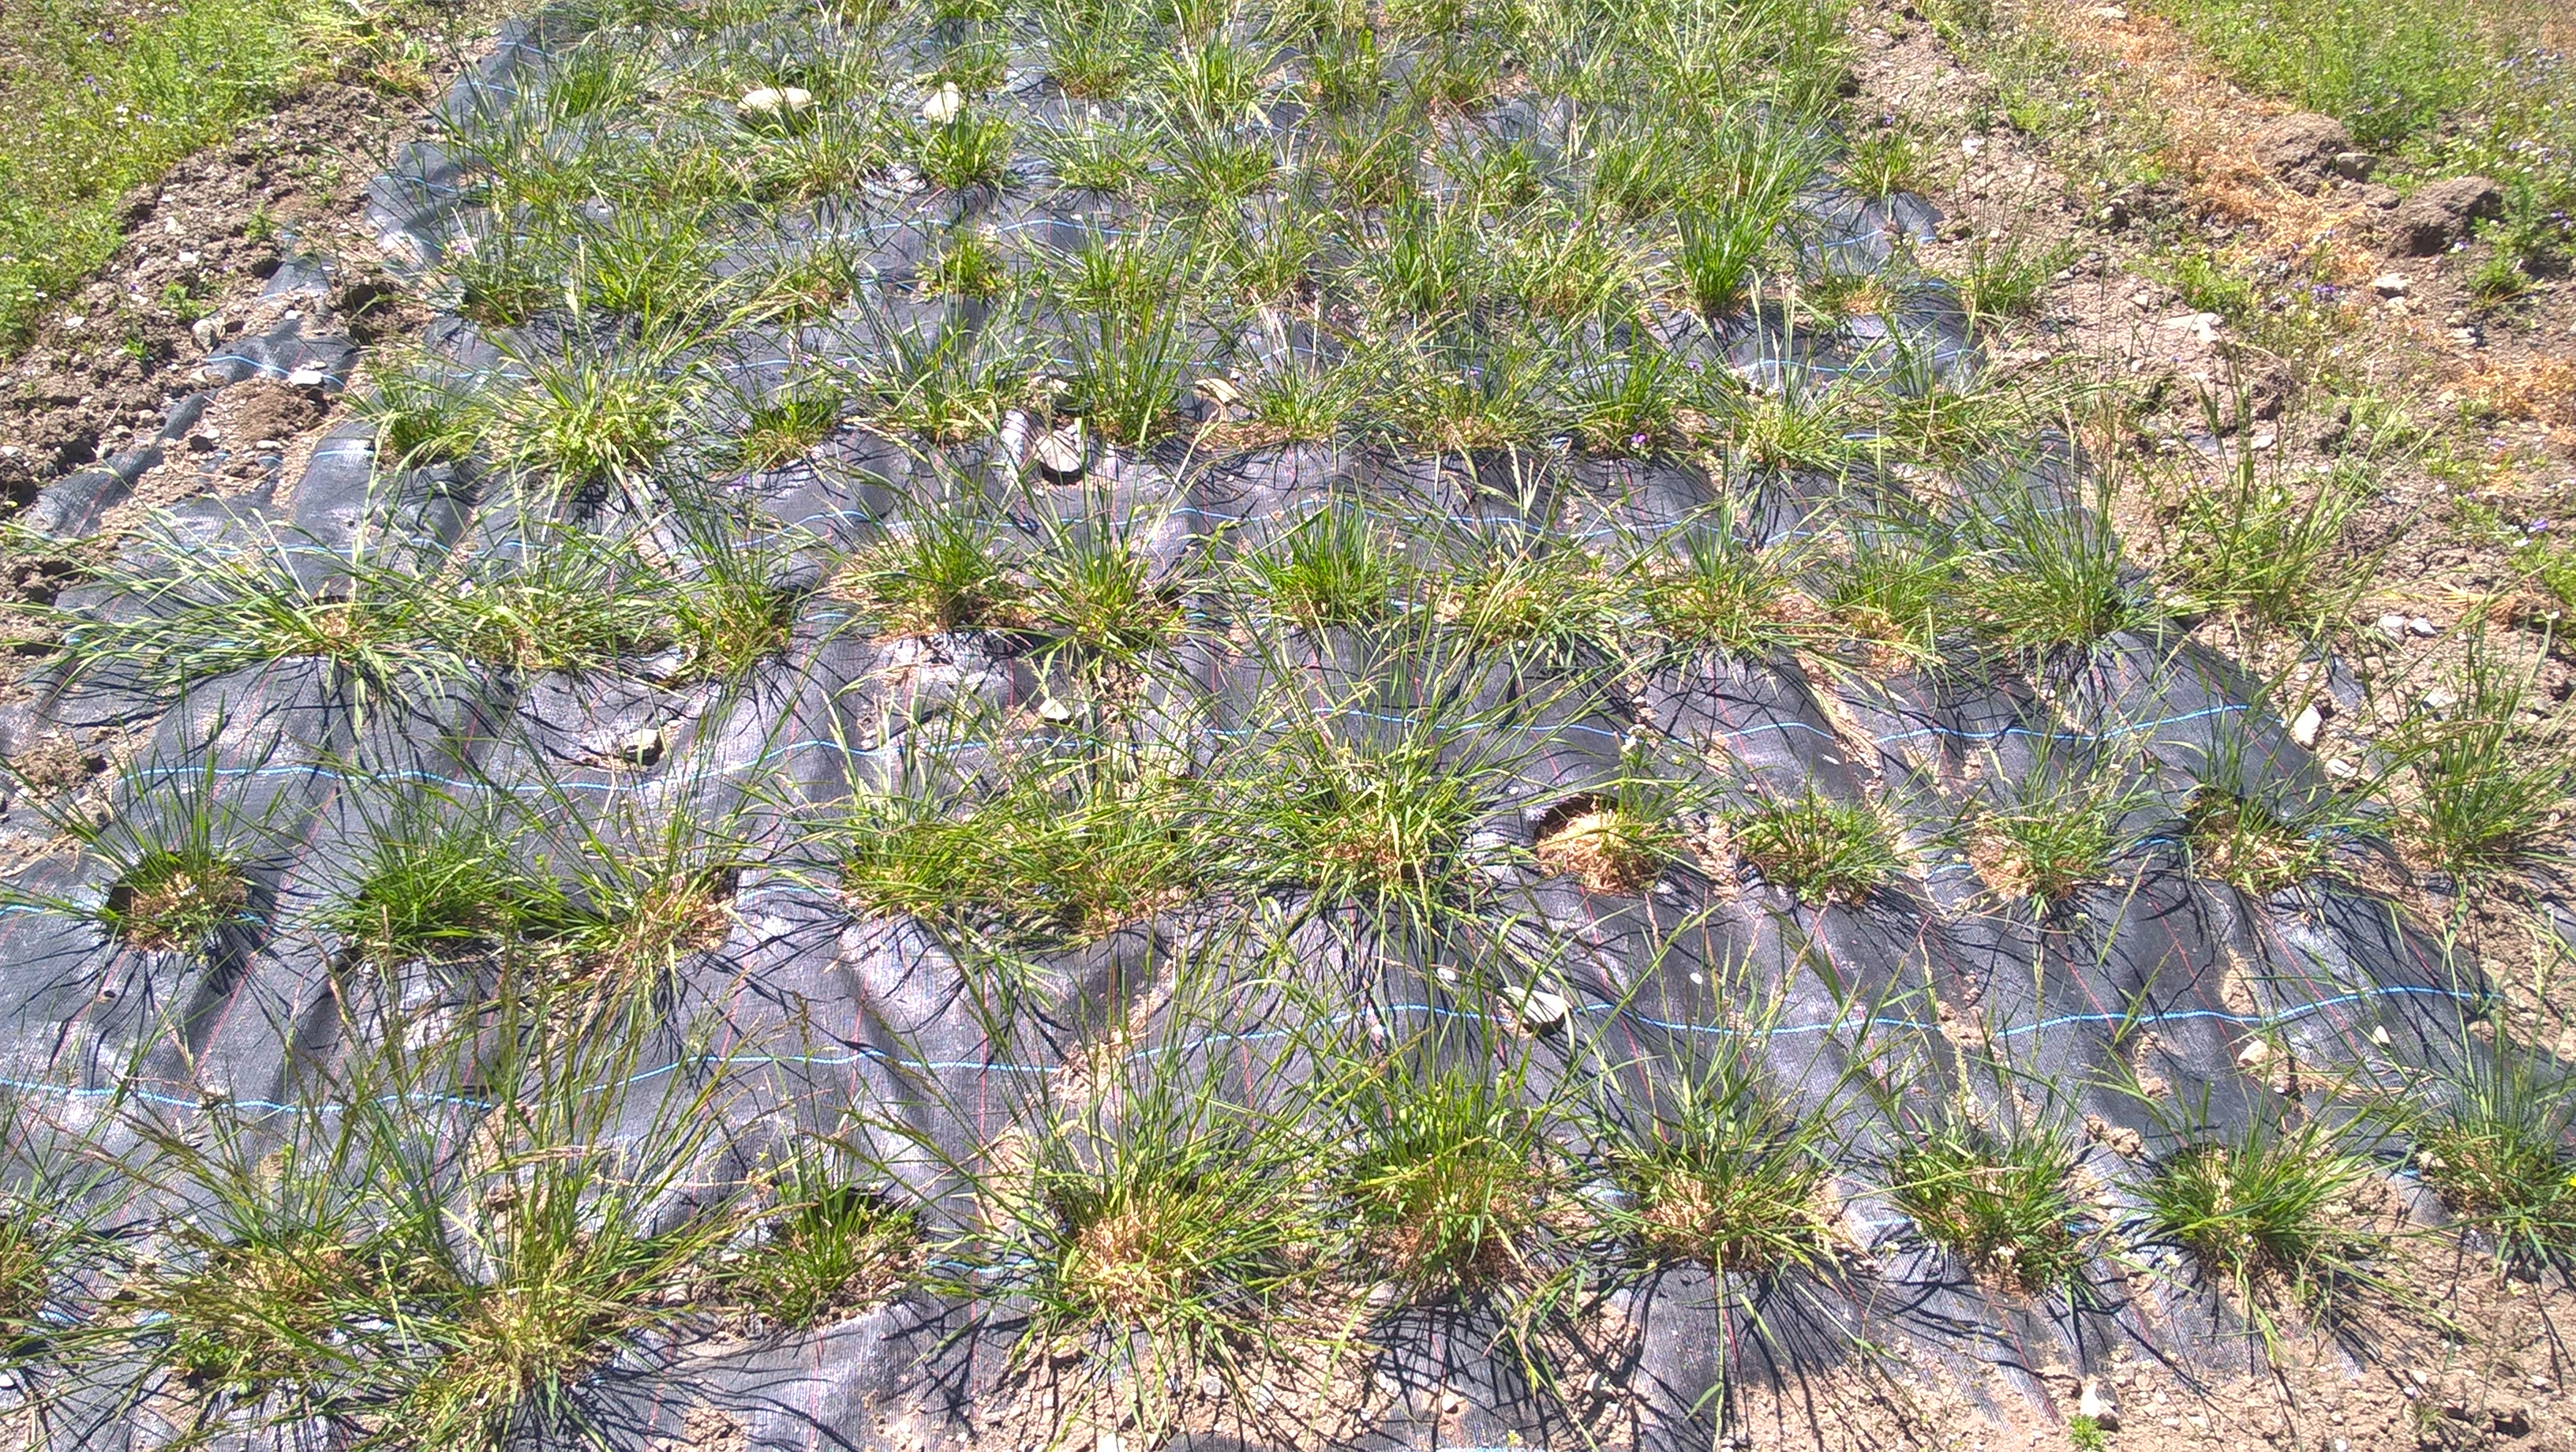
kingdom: Plantae
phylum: Tracheophyta
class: Liliopsida
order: Poales
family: Poaceae
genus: Agrostis
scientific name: Agrostis capillaris
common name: Colonial bentgrass
